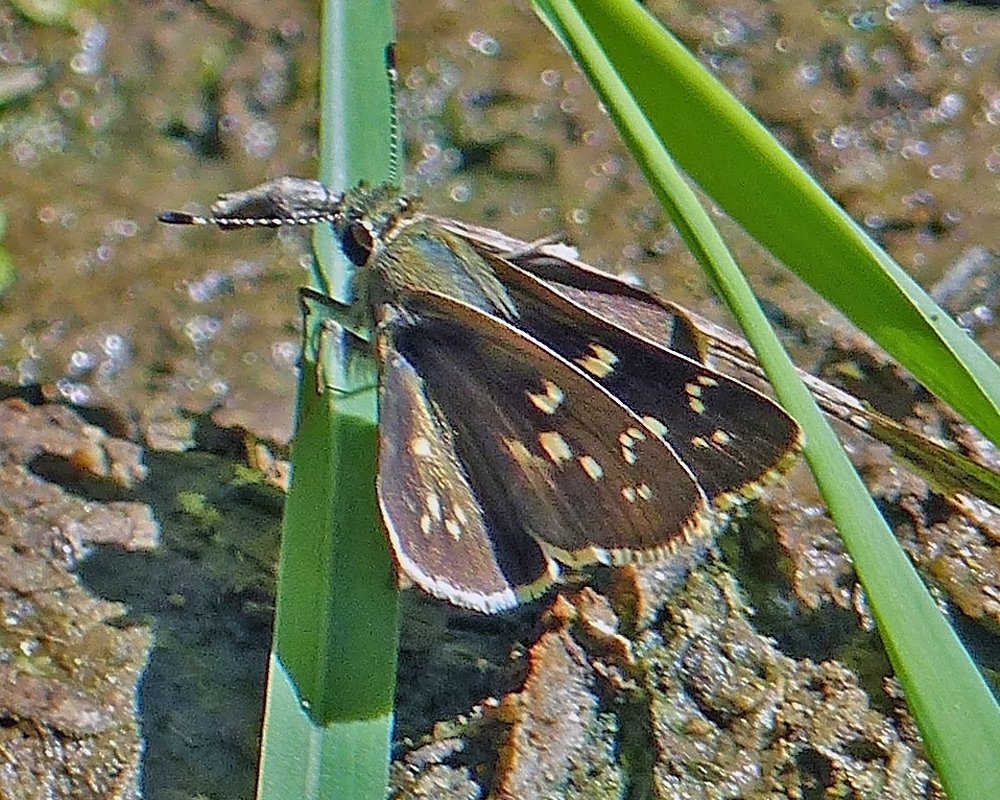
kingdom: Animalia
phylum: Arthropoda
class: Insecta
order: Lepidoptera
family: Hesperiidae
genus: Mastor
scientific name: Mastor tolteca
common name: Toltec Roadside-Skipper
